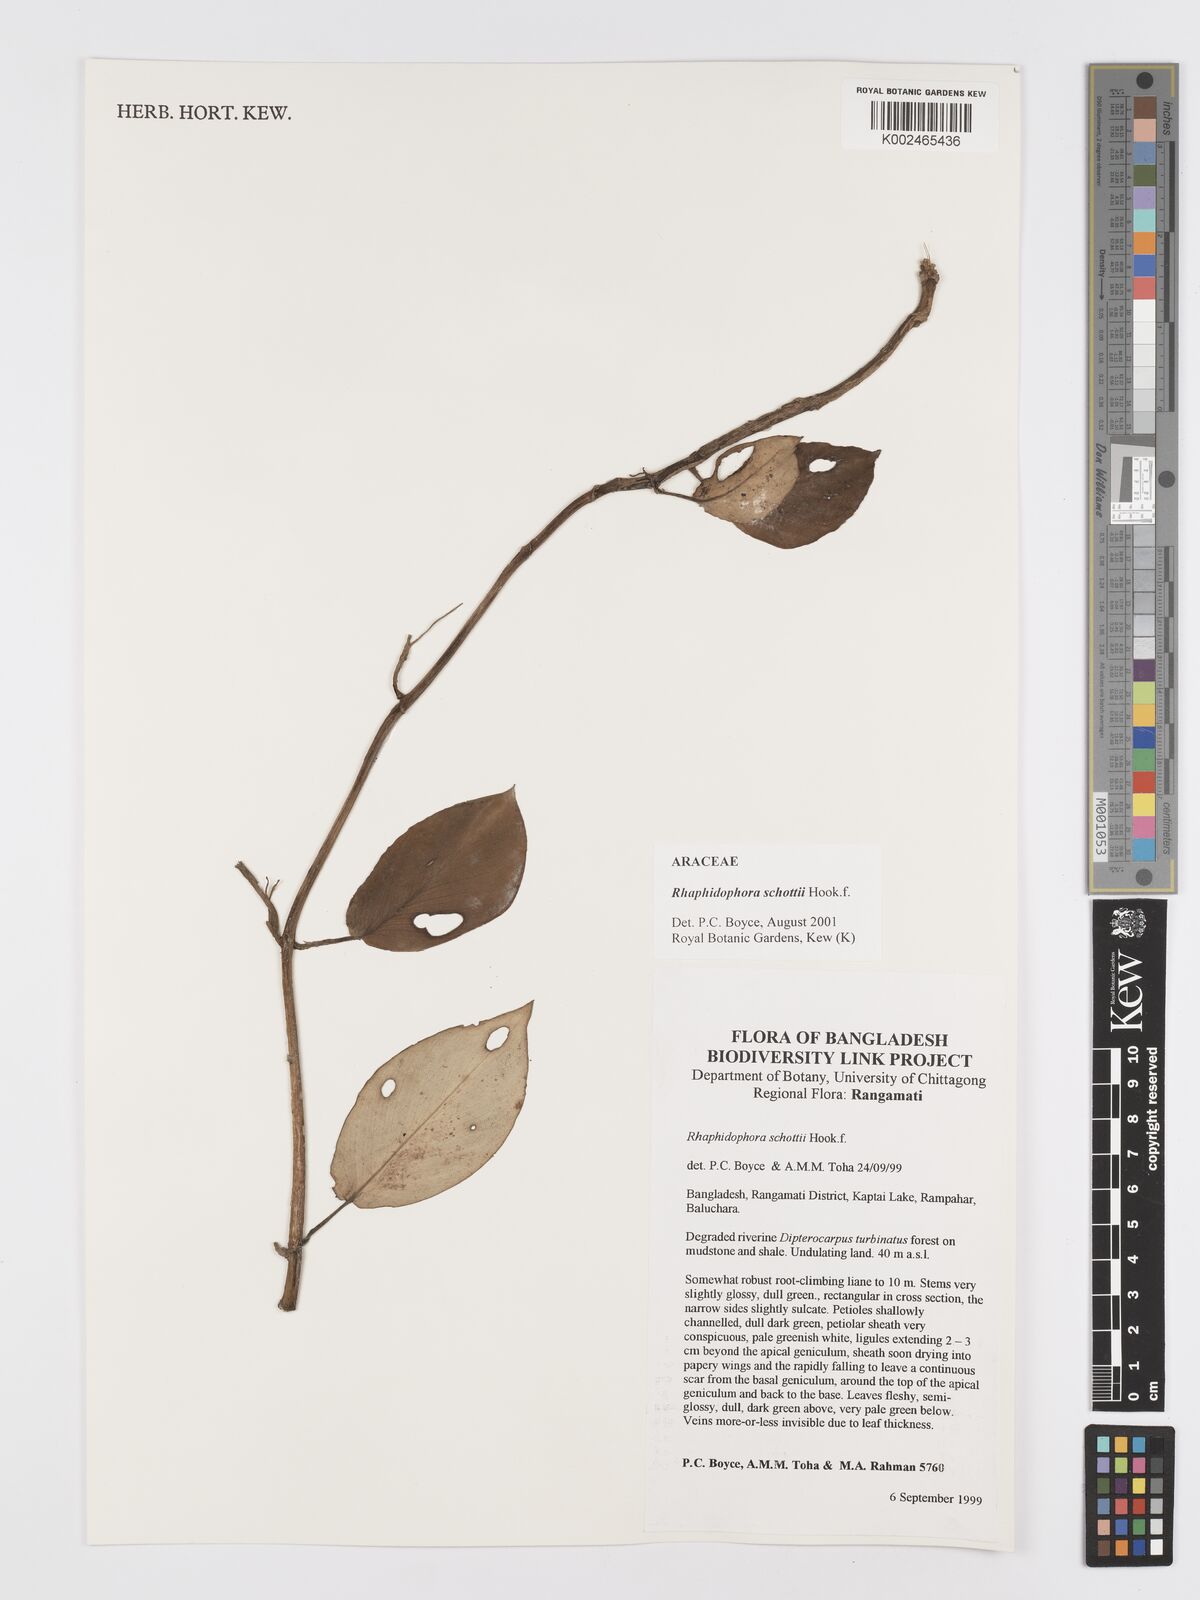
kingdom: Plantae
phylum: Tracheophyta
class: Liliopsida
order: Alismatales
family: Araceae
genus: Rhaphidophora
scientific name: Rhaphidophora schottii
